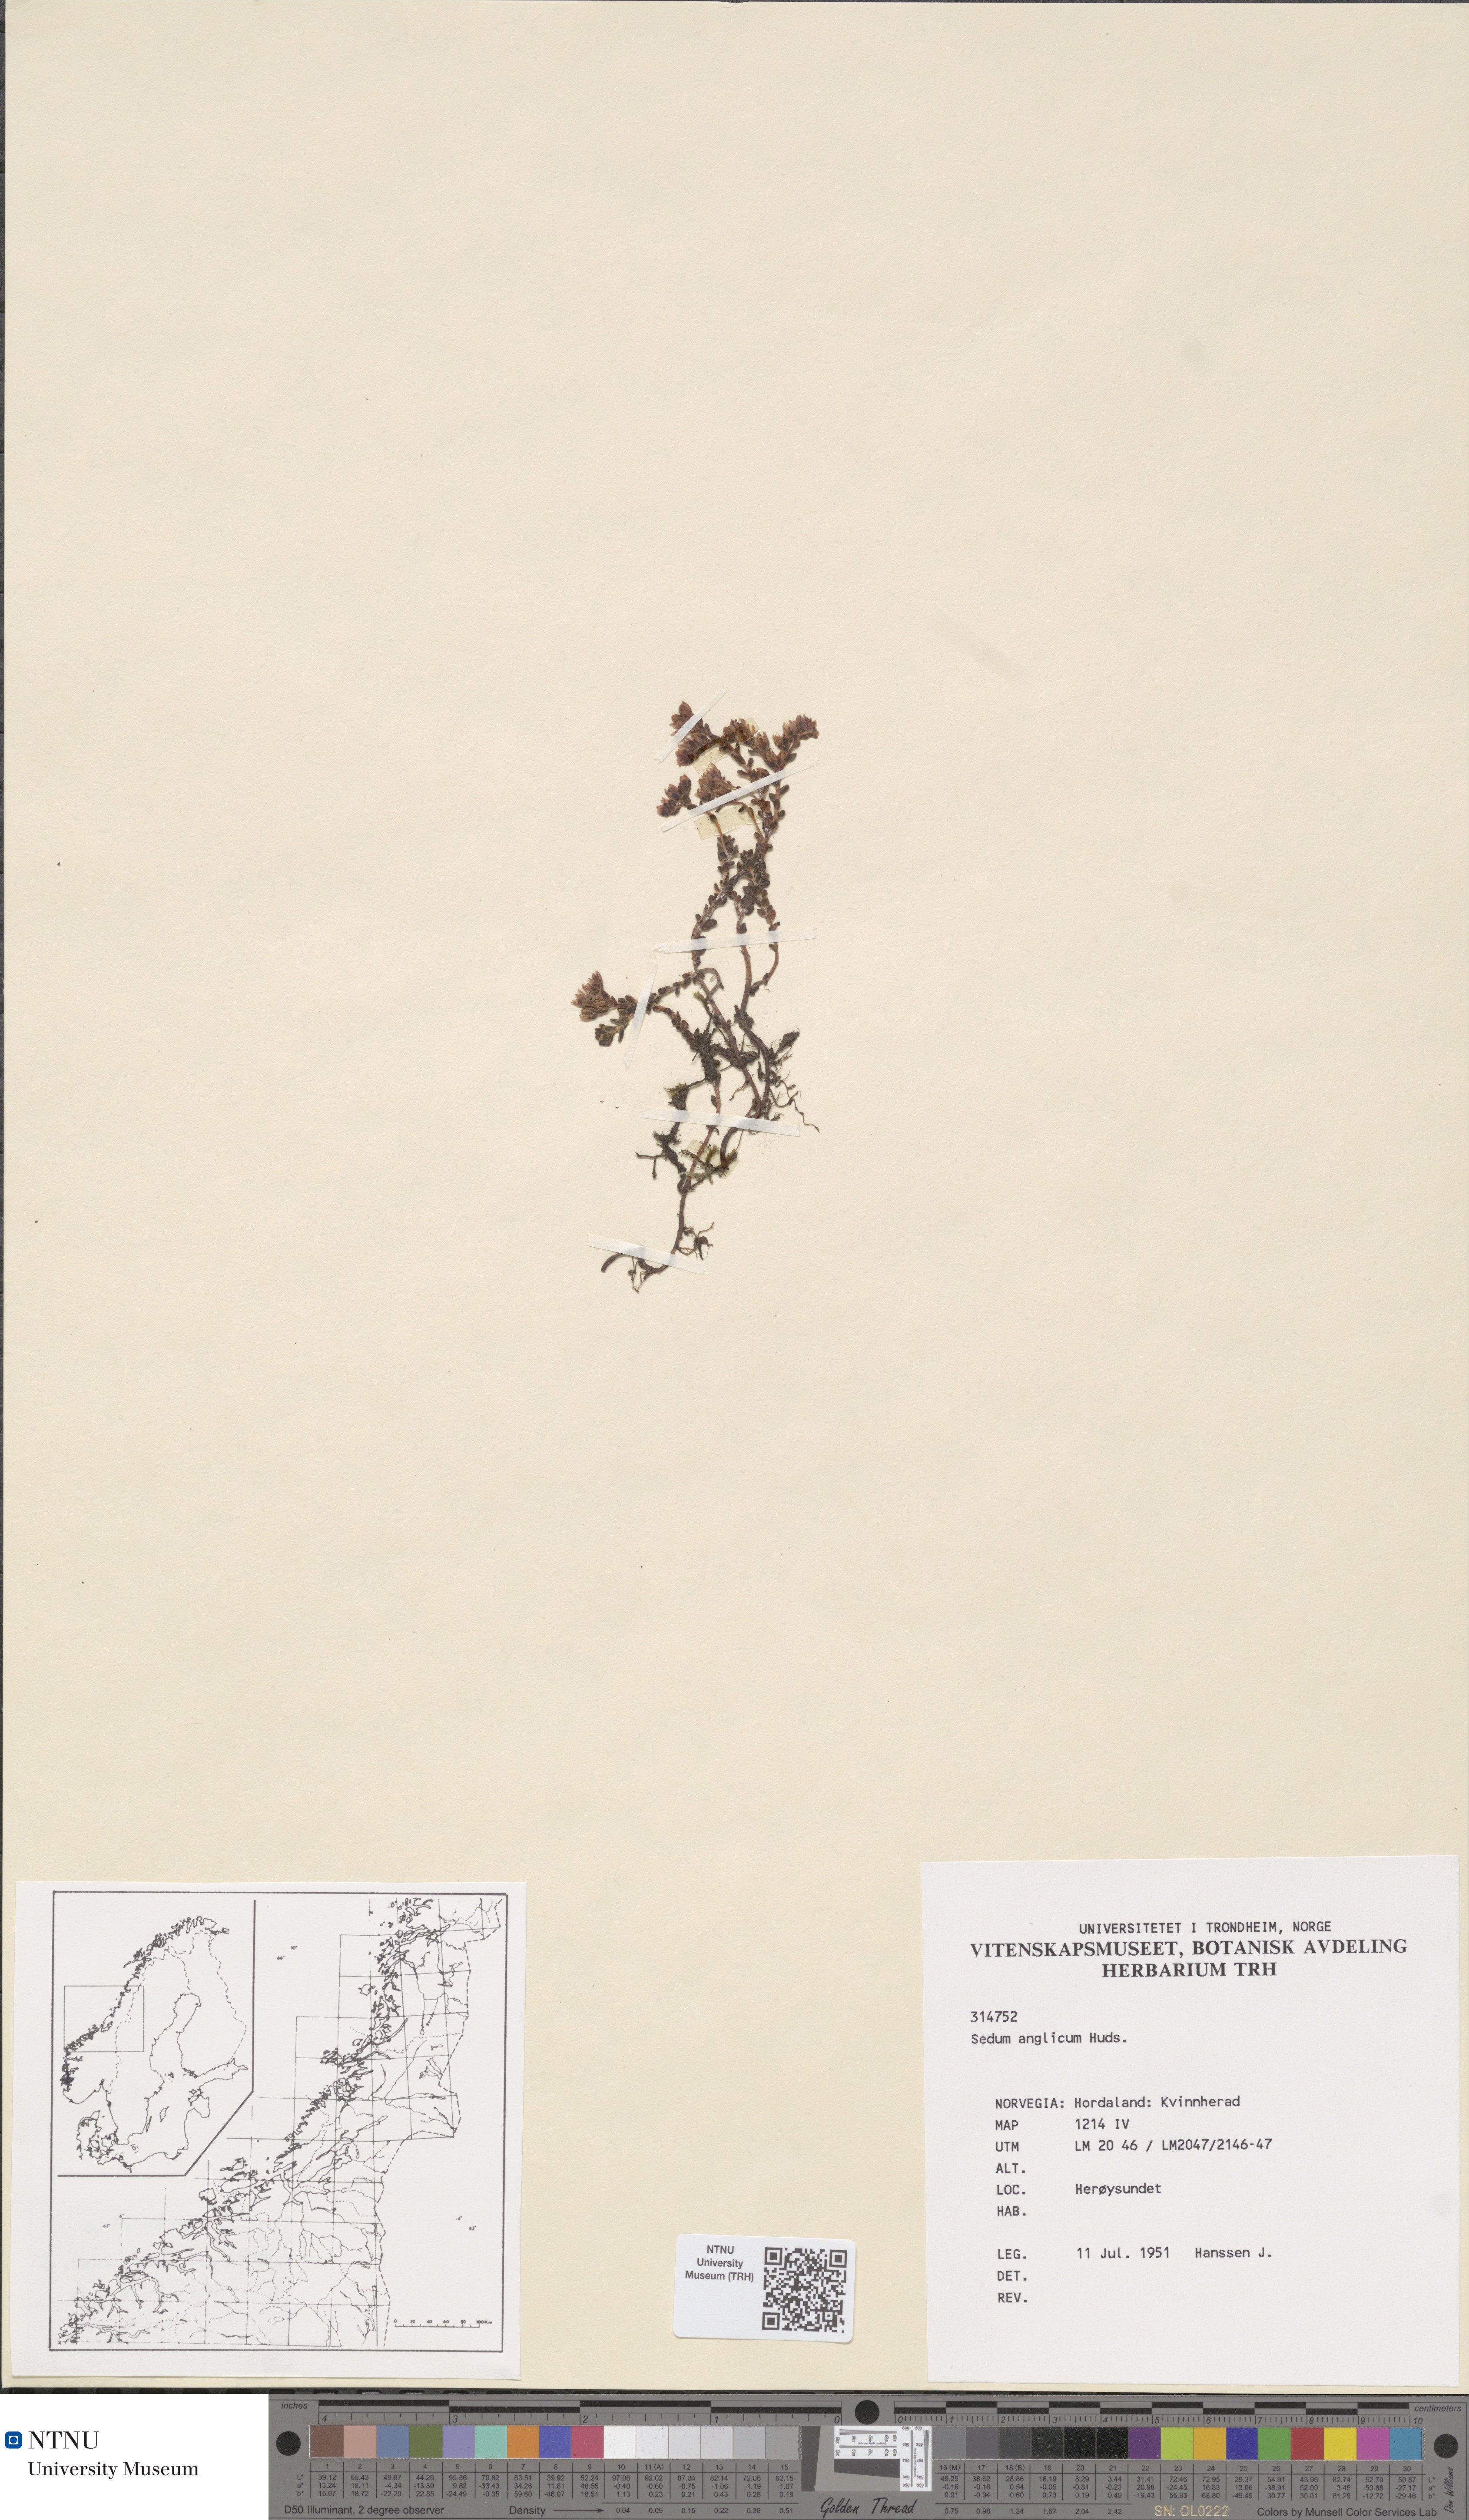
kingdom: Plantae
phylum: Tracheophyta
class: Magnoliopsida
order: Saxifragales
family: Crassulaceae
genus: Sedum
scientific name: Sedum anglicum
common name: English stonecrop
